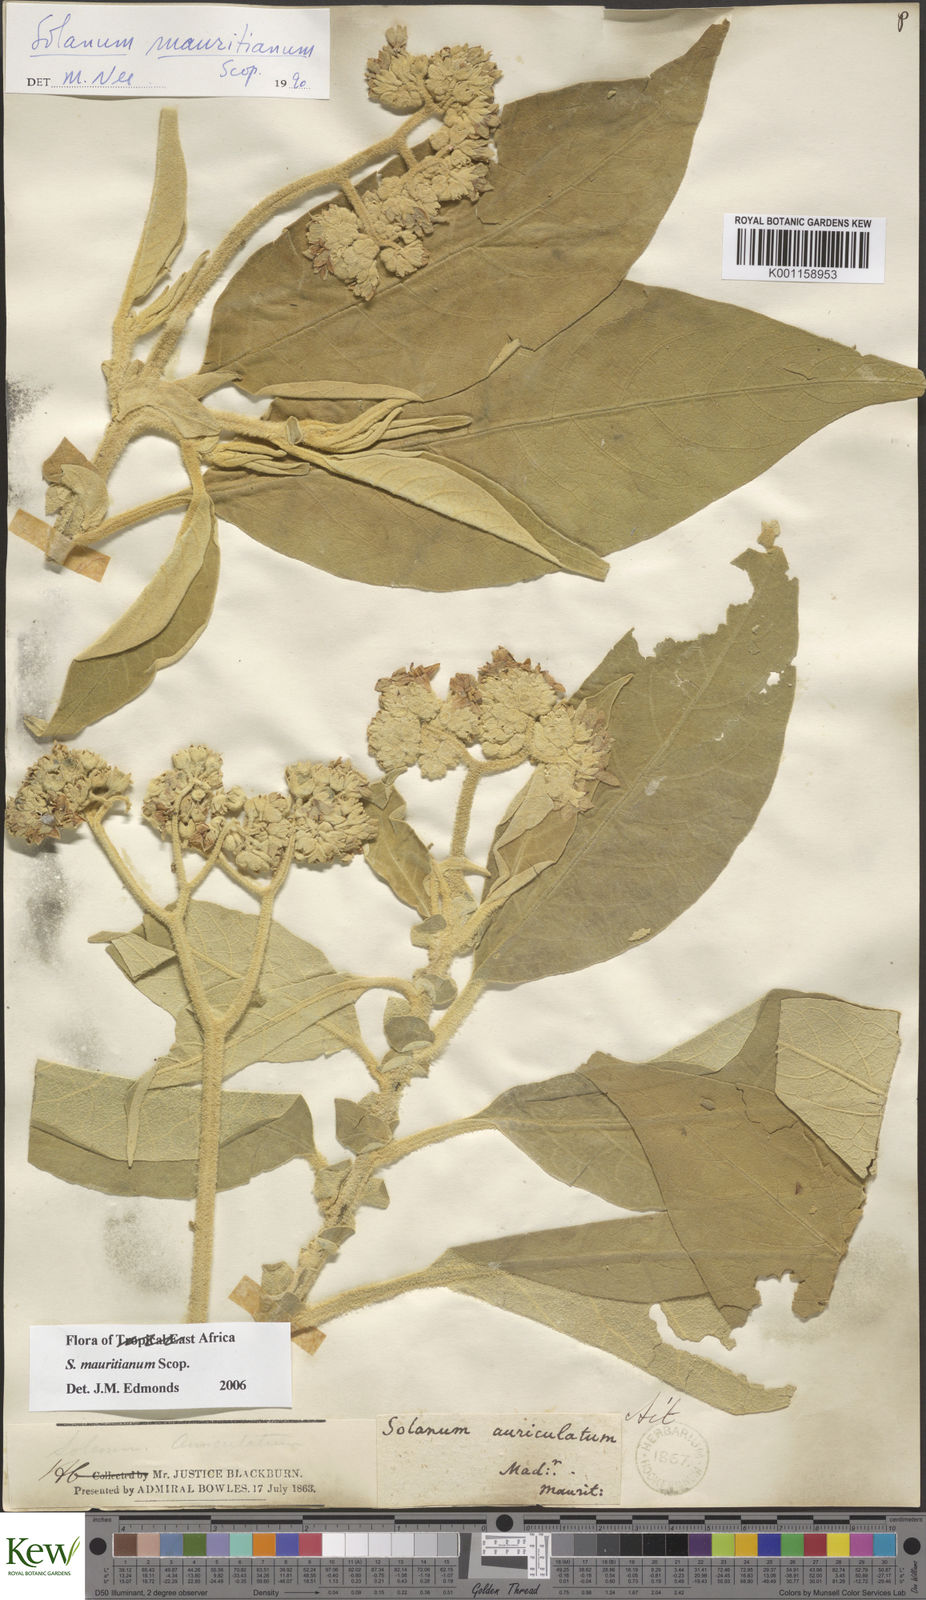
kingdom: Plantae
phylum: Tracheophyta
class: Magnoliopsida
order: Solanales
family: Solanaceae
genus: Solanum
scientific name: Solanum mauritianum
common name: Earleaf nightshade
